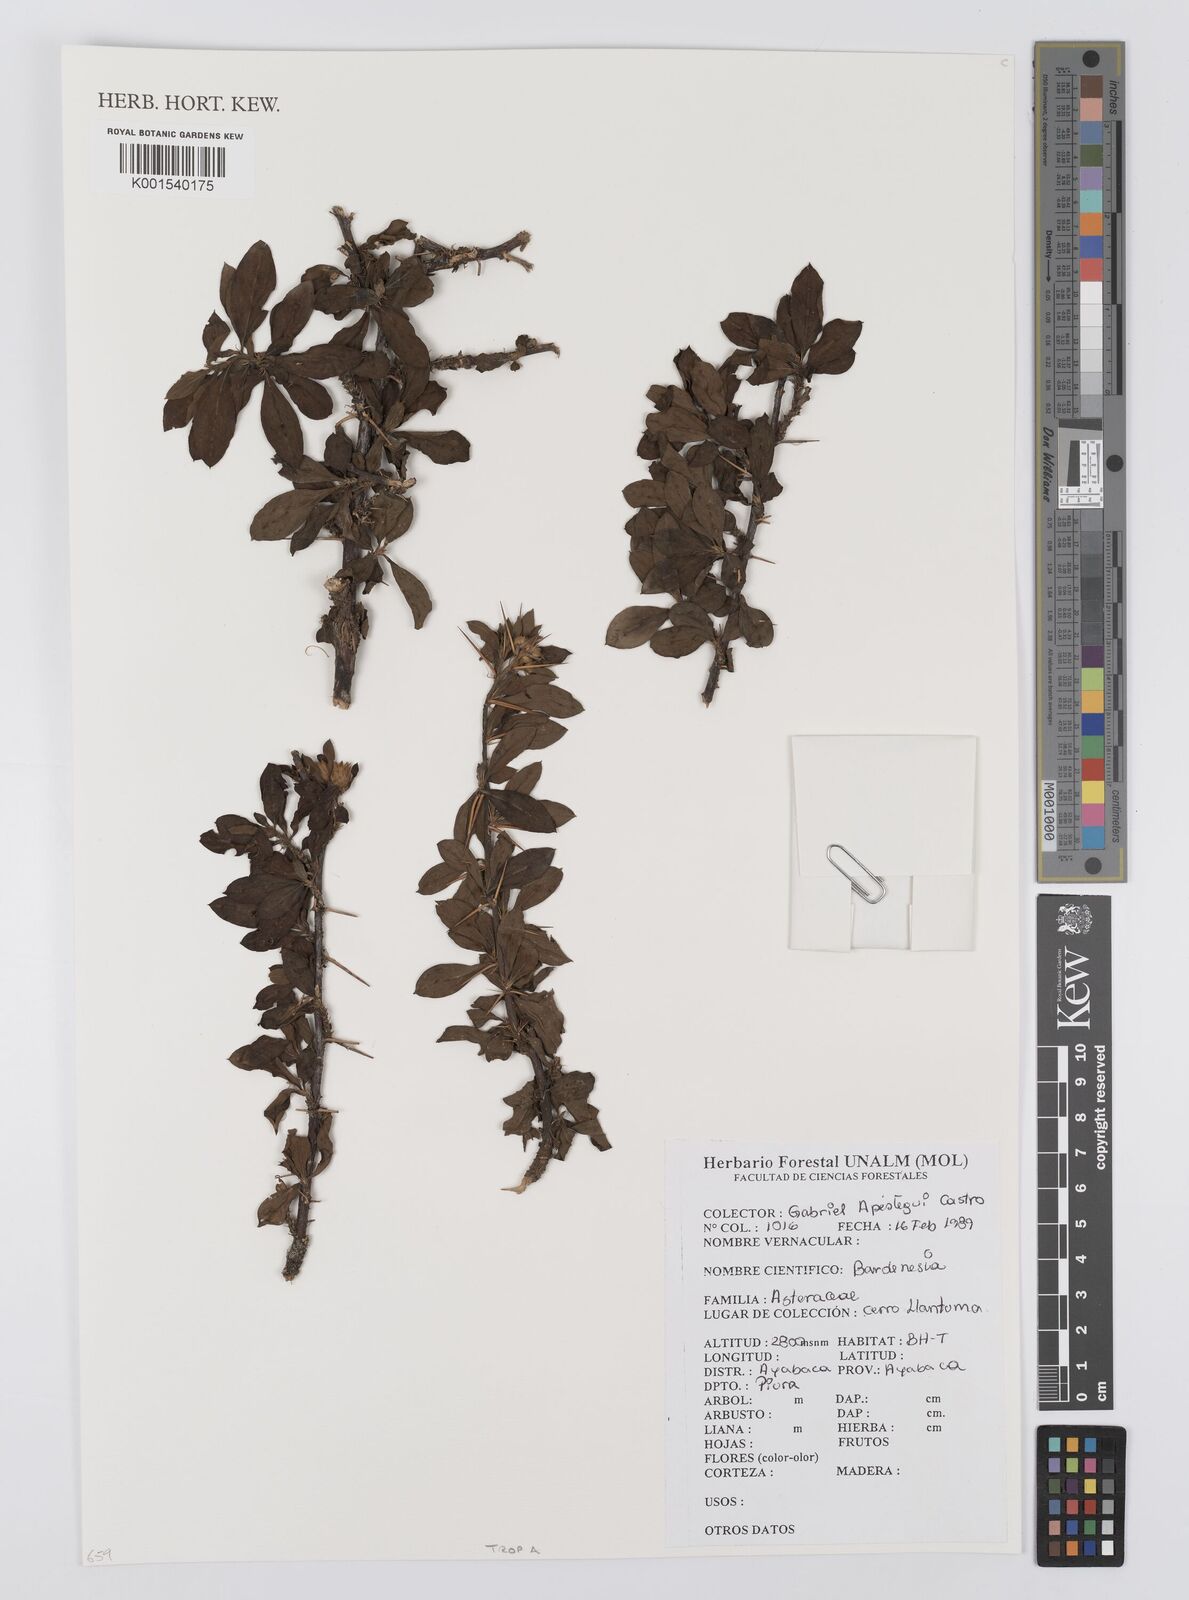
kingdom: Plantae
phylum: Tracheophyta
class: Magnoliopsida
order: Asterales
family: Asteraceae
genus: Barnadesia
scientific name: Barnadesia
